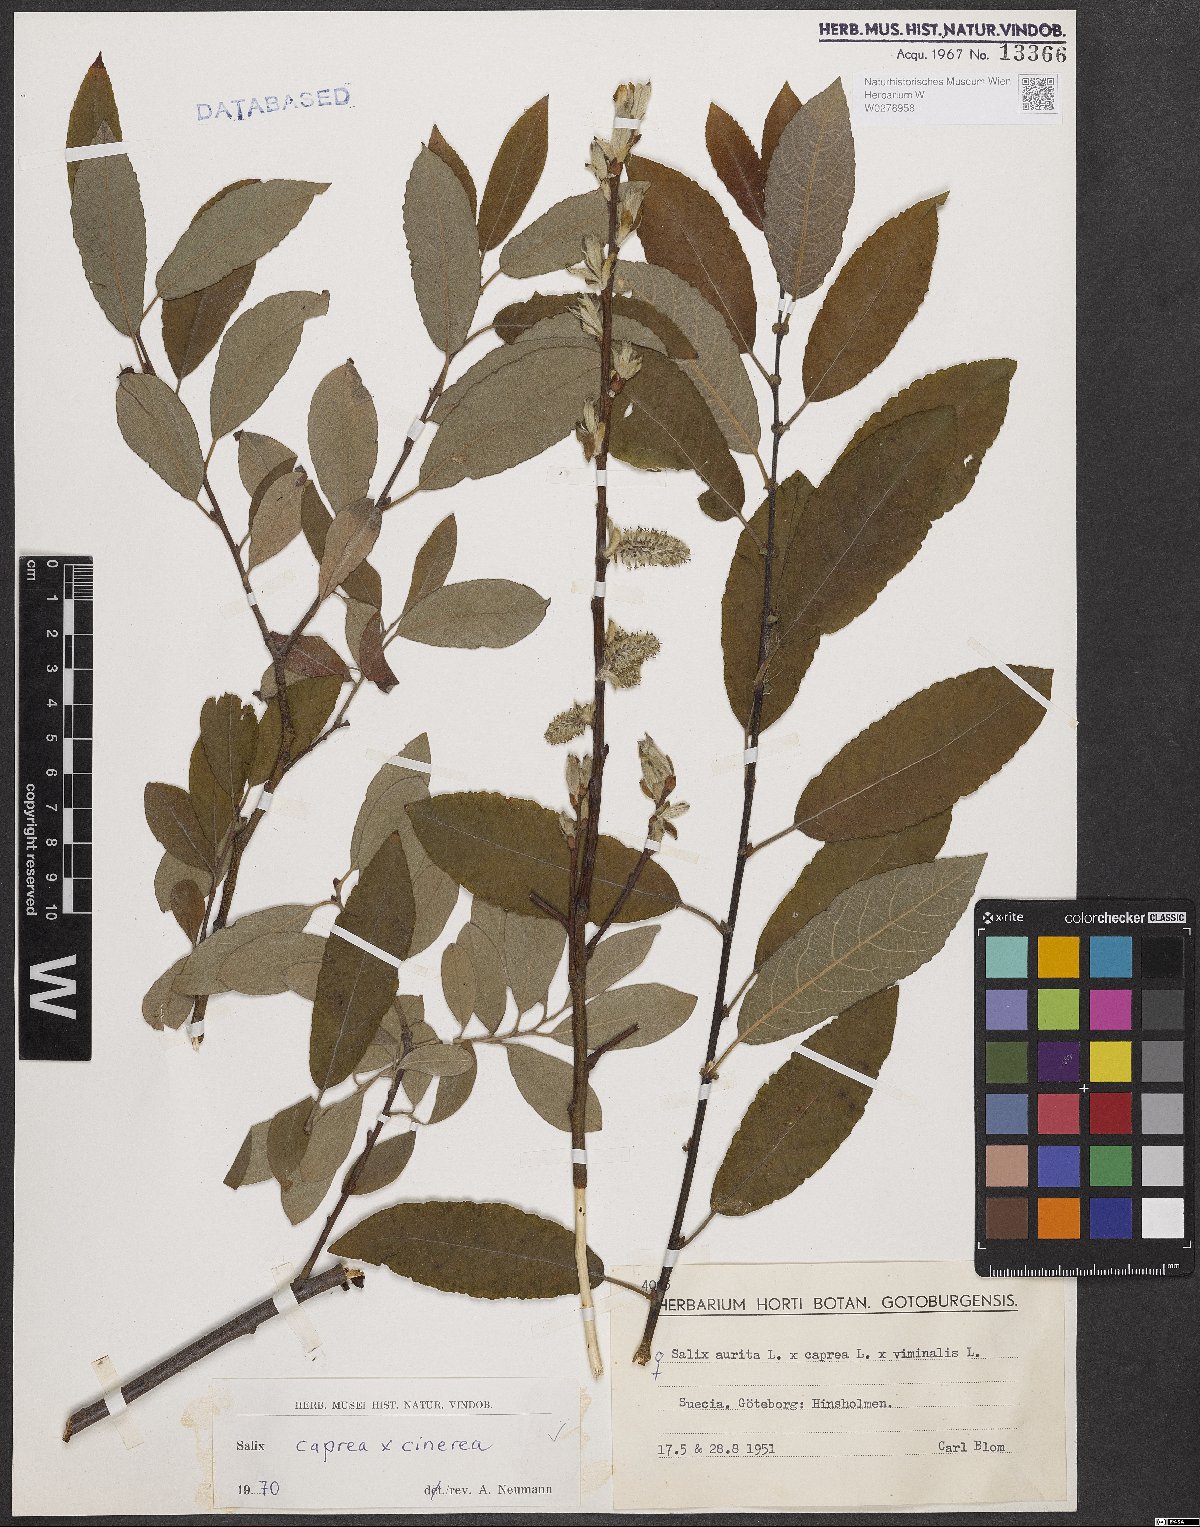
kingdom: Plantae
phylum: Tracheophyta
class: Magnoliopsida
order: Malpighiales
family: Salicaceae
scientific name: Salicaceae
